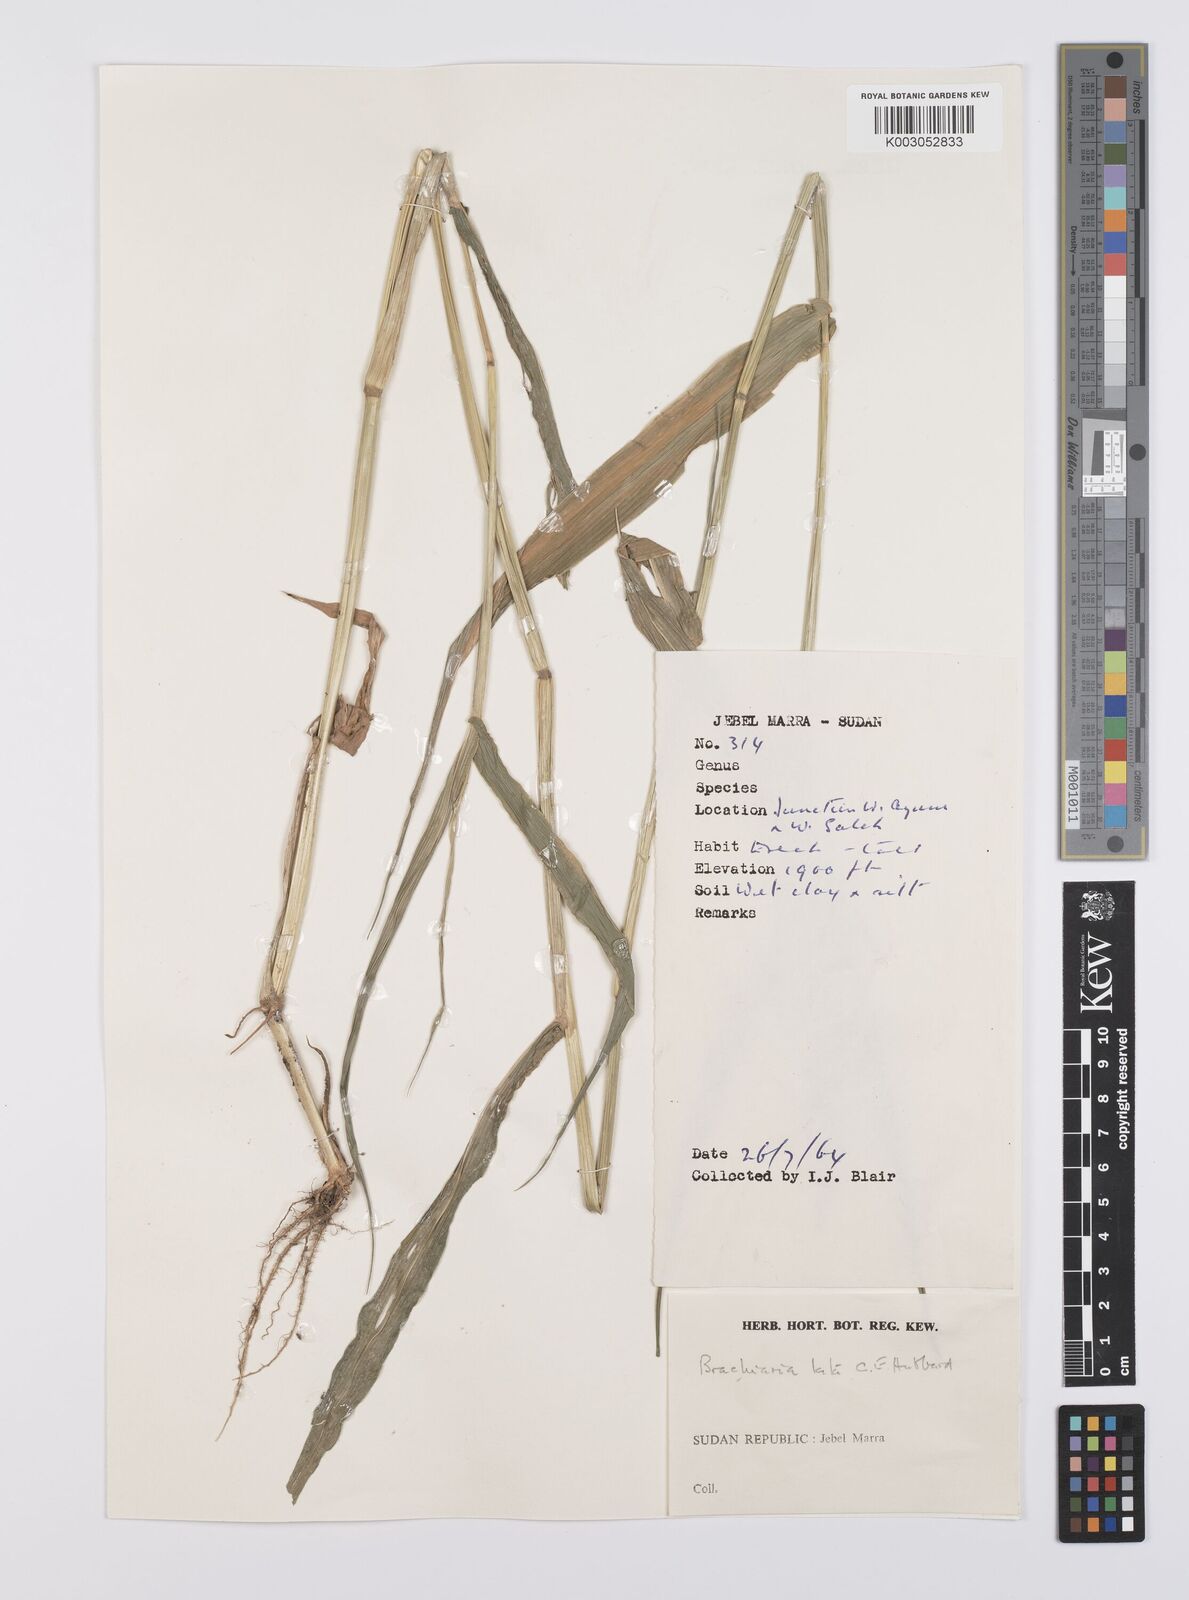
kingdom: Plantae
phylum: Tracheophyta
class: Liliopsida
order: Poales
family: Poaceae
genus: Urochloa
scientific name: Urochloa lata
